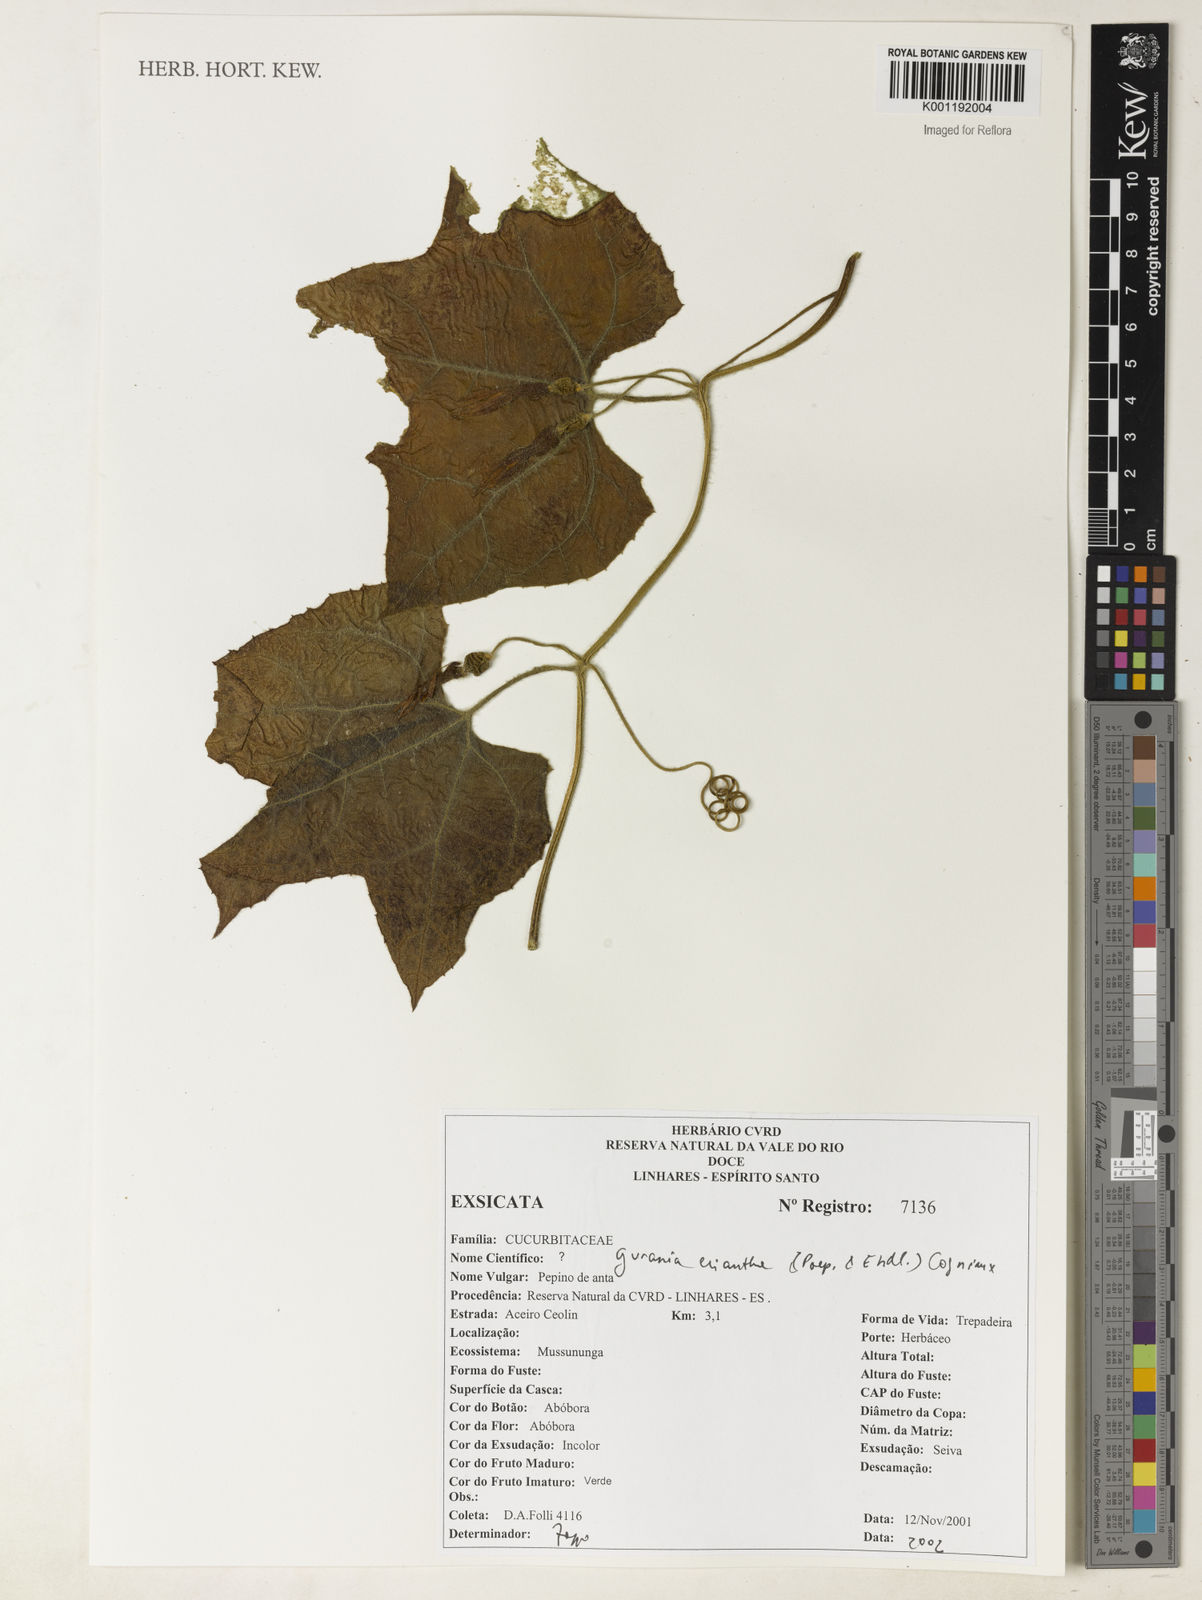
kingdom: Plantae
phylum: Tracheophyta
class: Magnoliopsida
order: Cucurbitales
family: Cucurbitaceae
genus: Gurania
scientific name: Gurania eriantha
